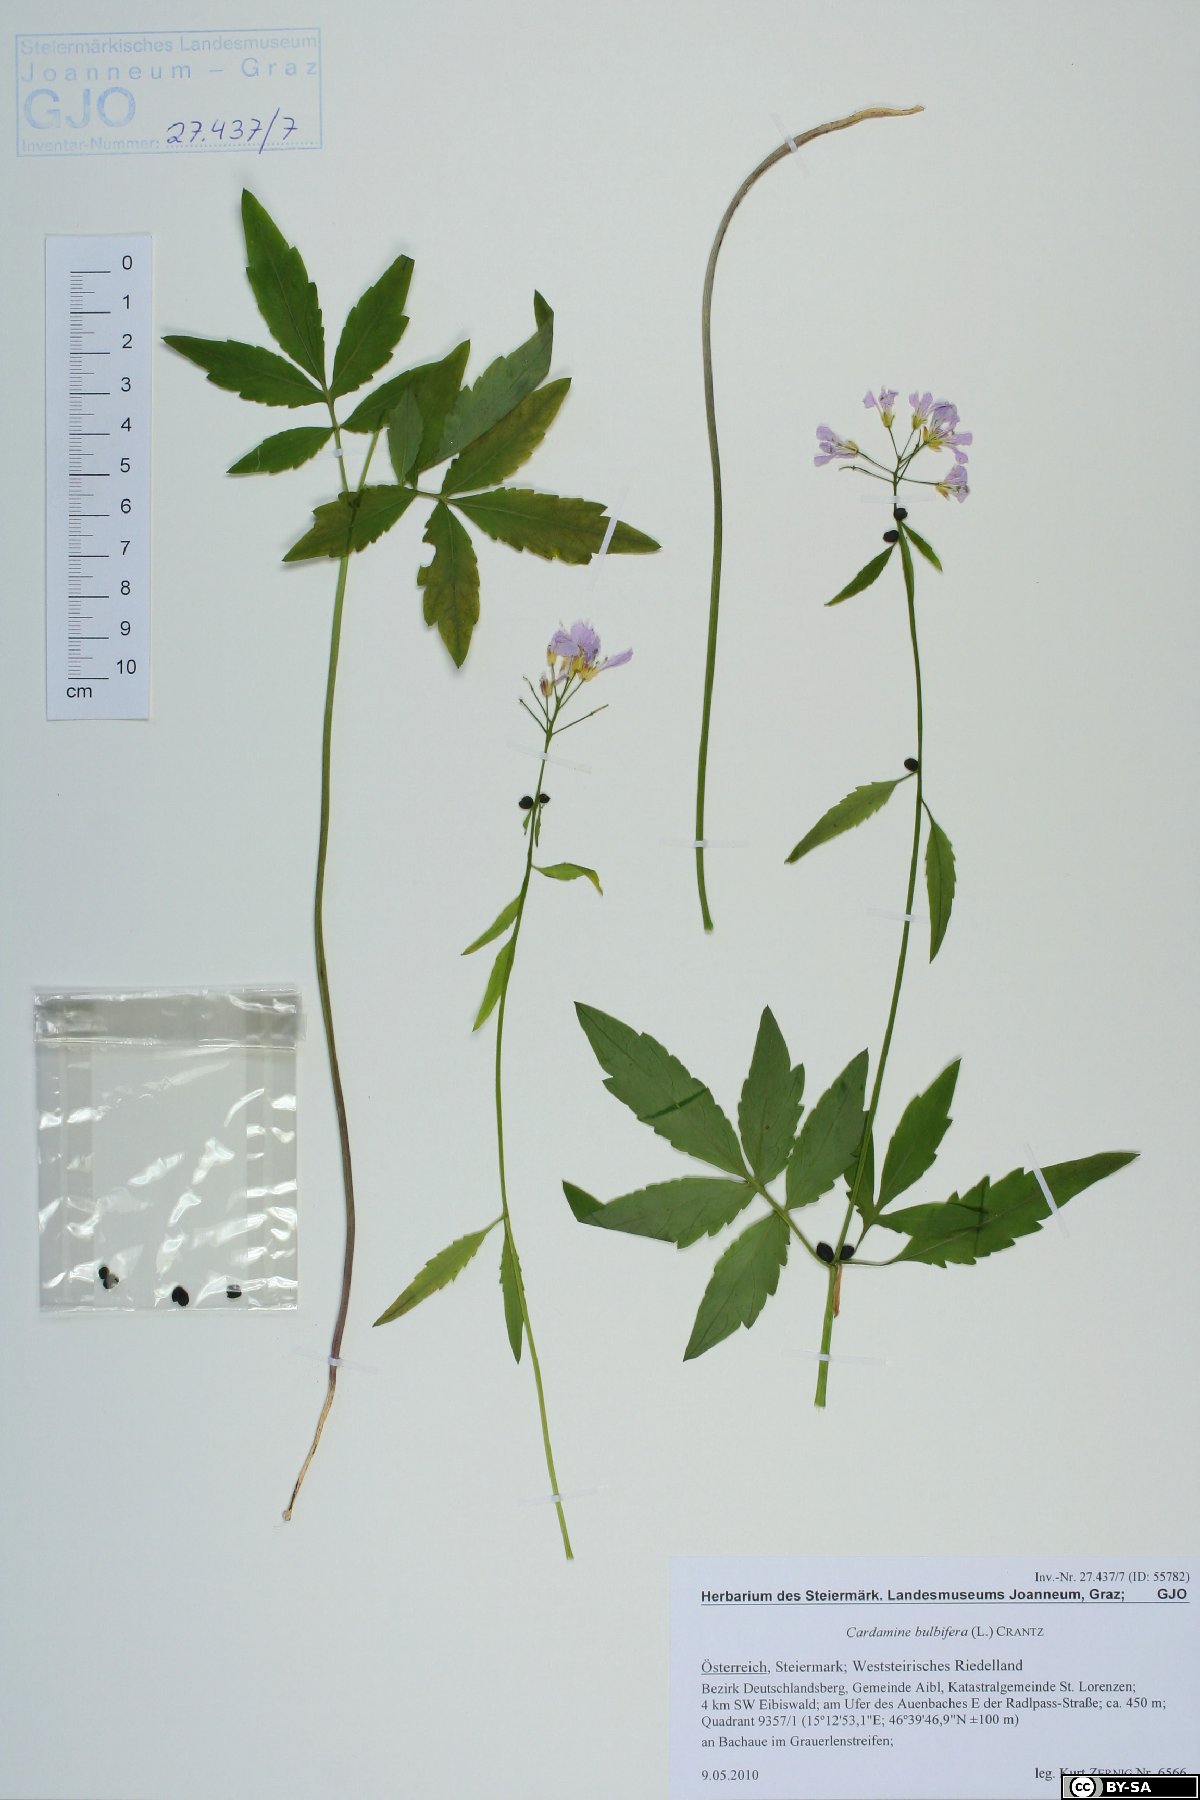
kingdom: Plantae
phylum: Tracheophyta
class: Magnoliopsida
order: Brassicales
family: Brassicaceae
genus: Cardamine
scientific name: Cardamine bulbifera
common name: Coralroot bittercress
